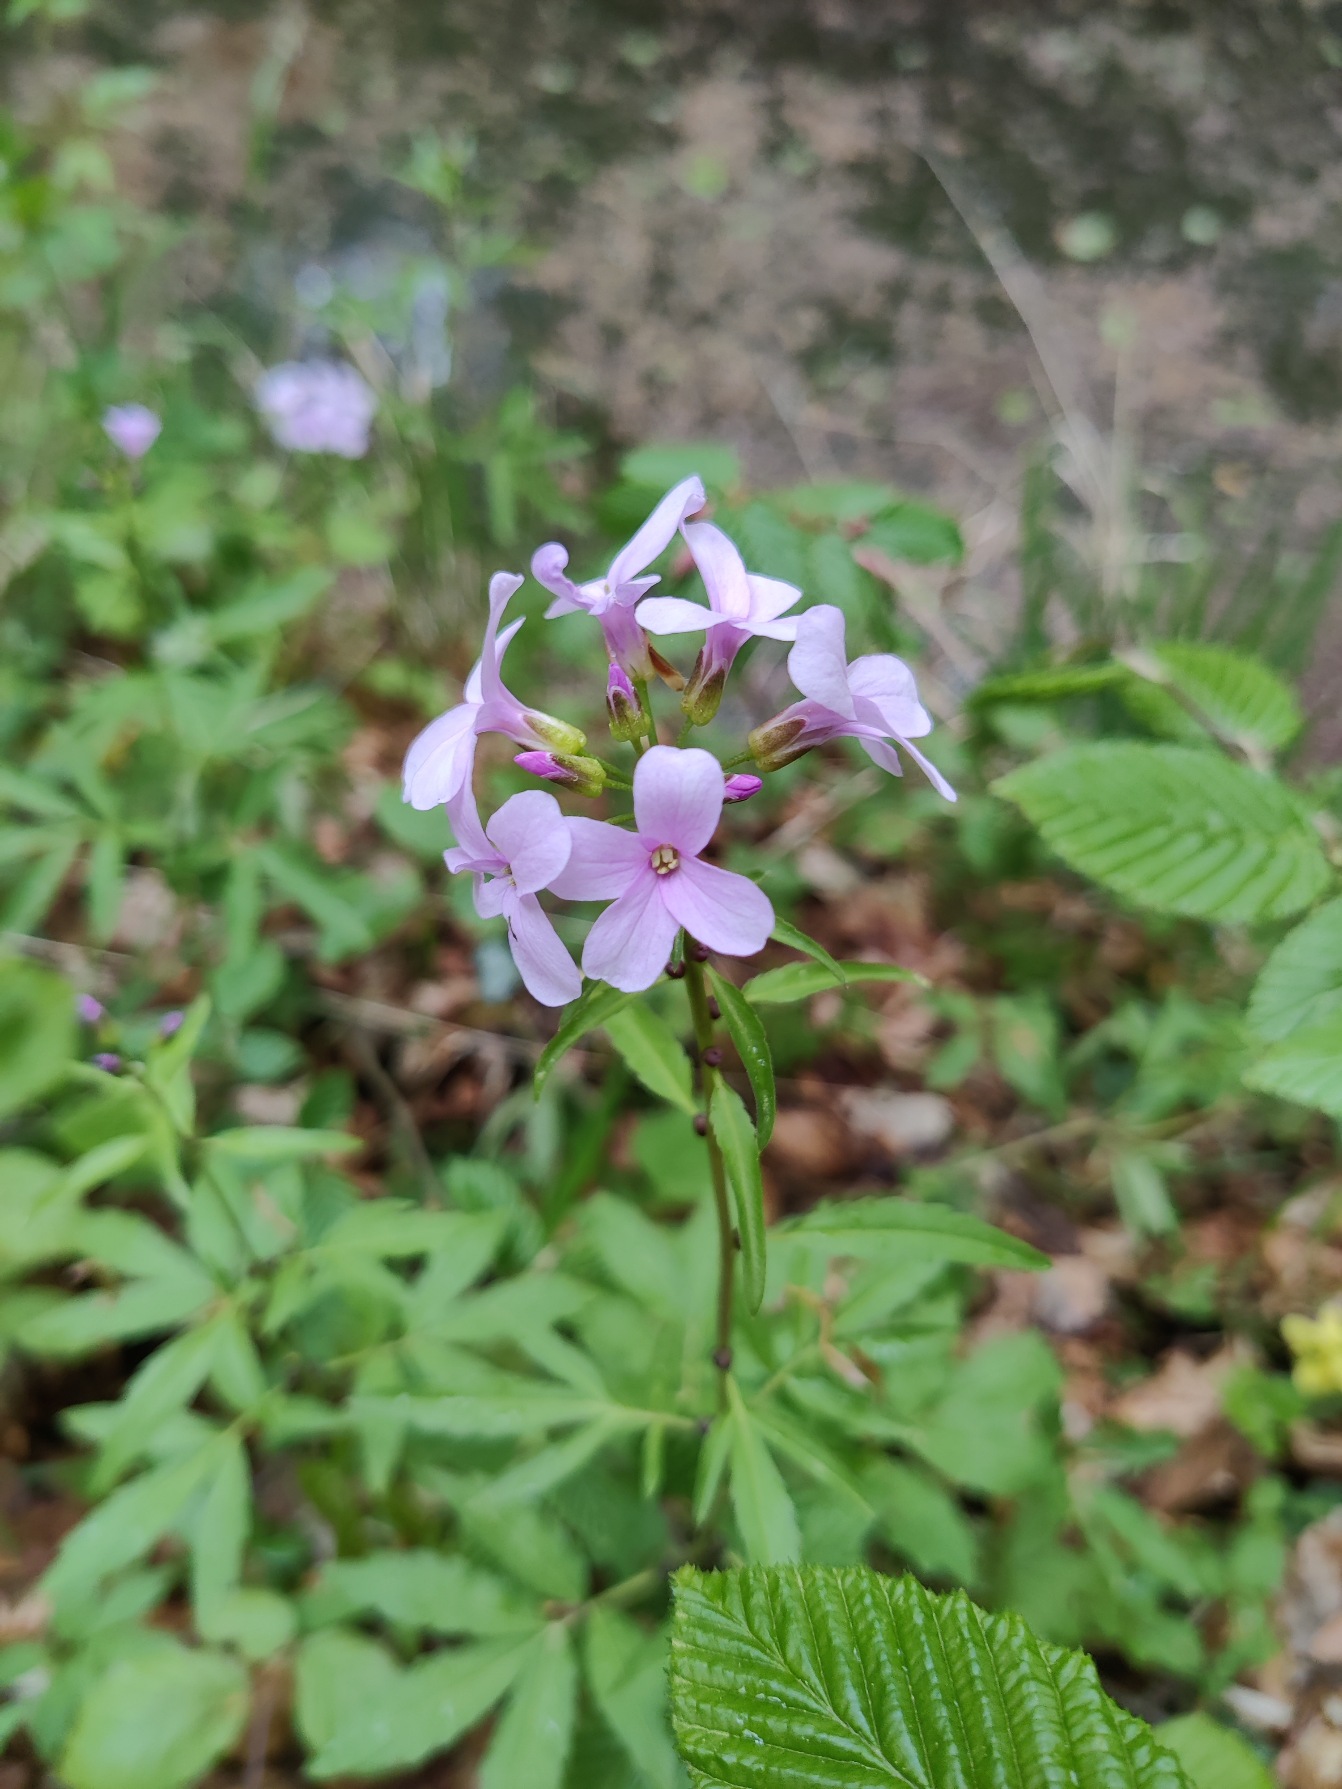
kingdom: Plantae
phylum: Tracheophyta
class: Magnoliopsida
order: Brassicales
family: Brassicaceae
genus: Cardamine
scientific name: Cardamine bulbifera
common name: Tandrod
